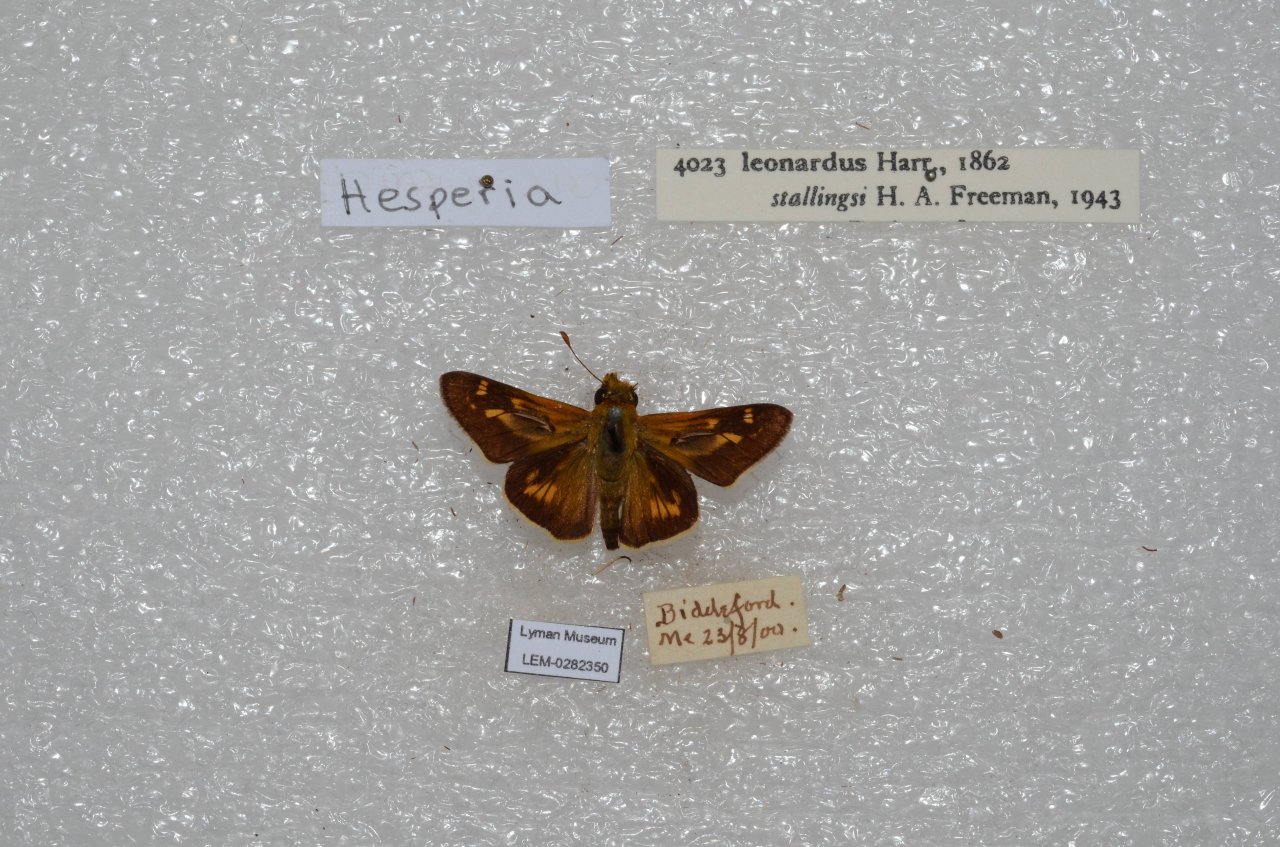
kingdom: Animalia
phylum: Arthropoda
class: Insecta
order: Lepidoptera
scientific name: Lepidoptera
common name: Butterflies
